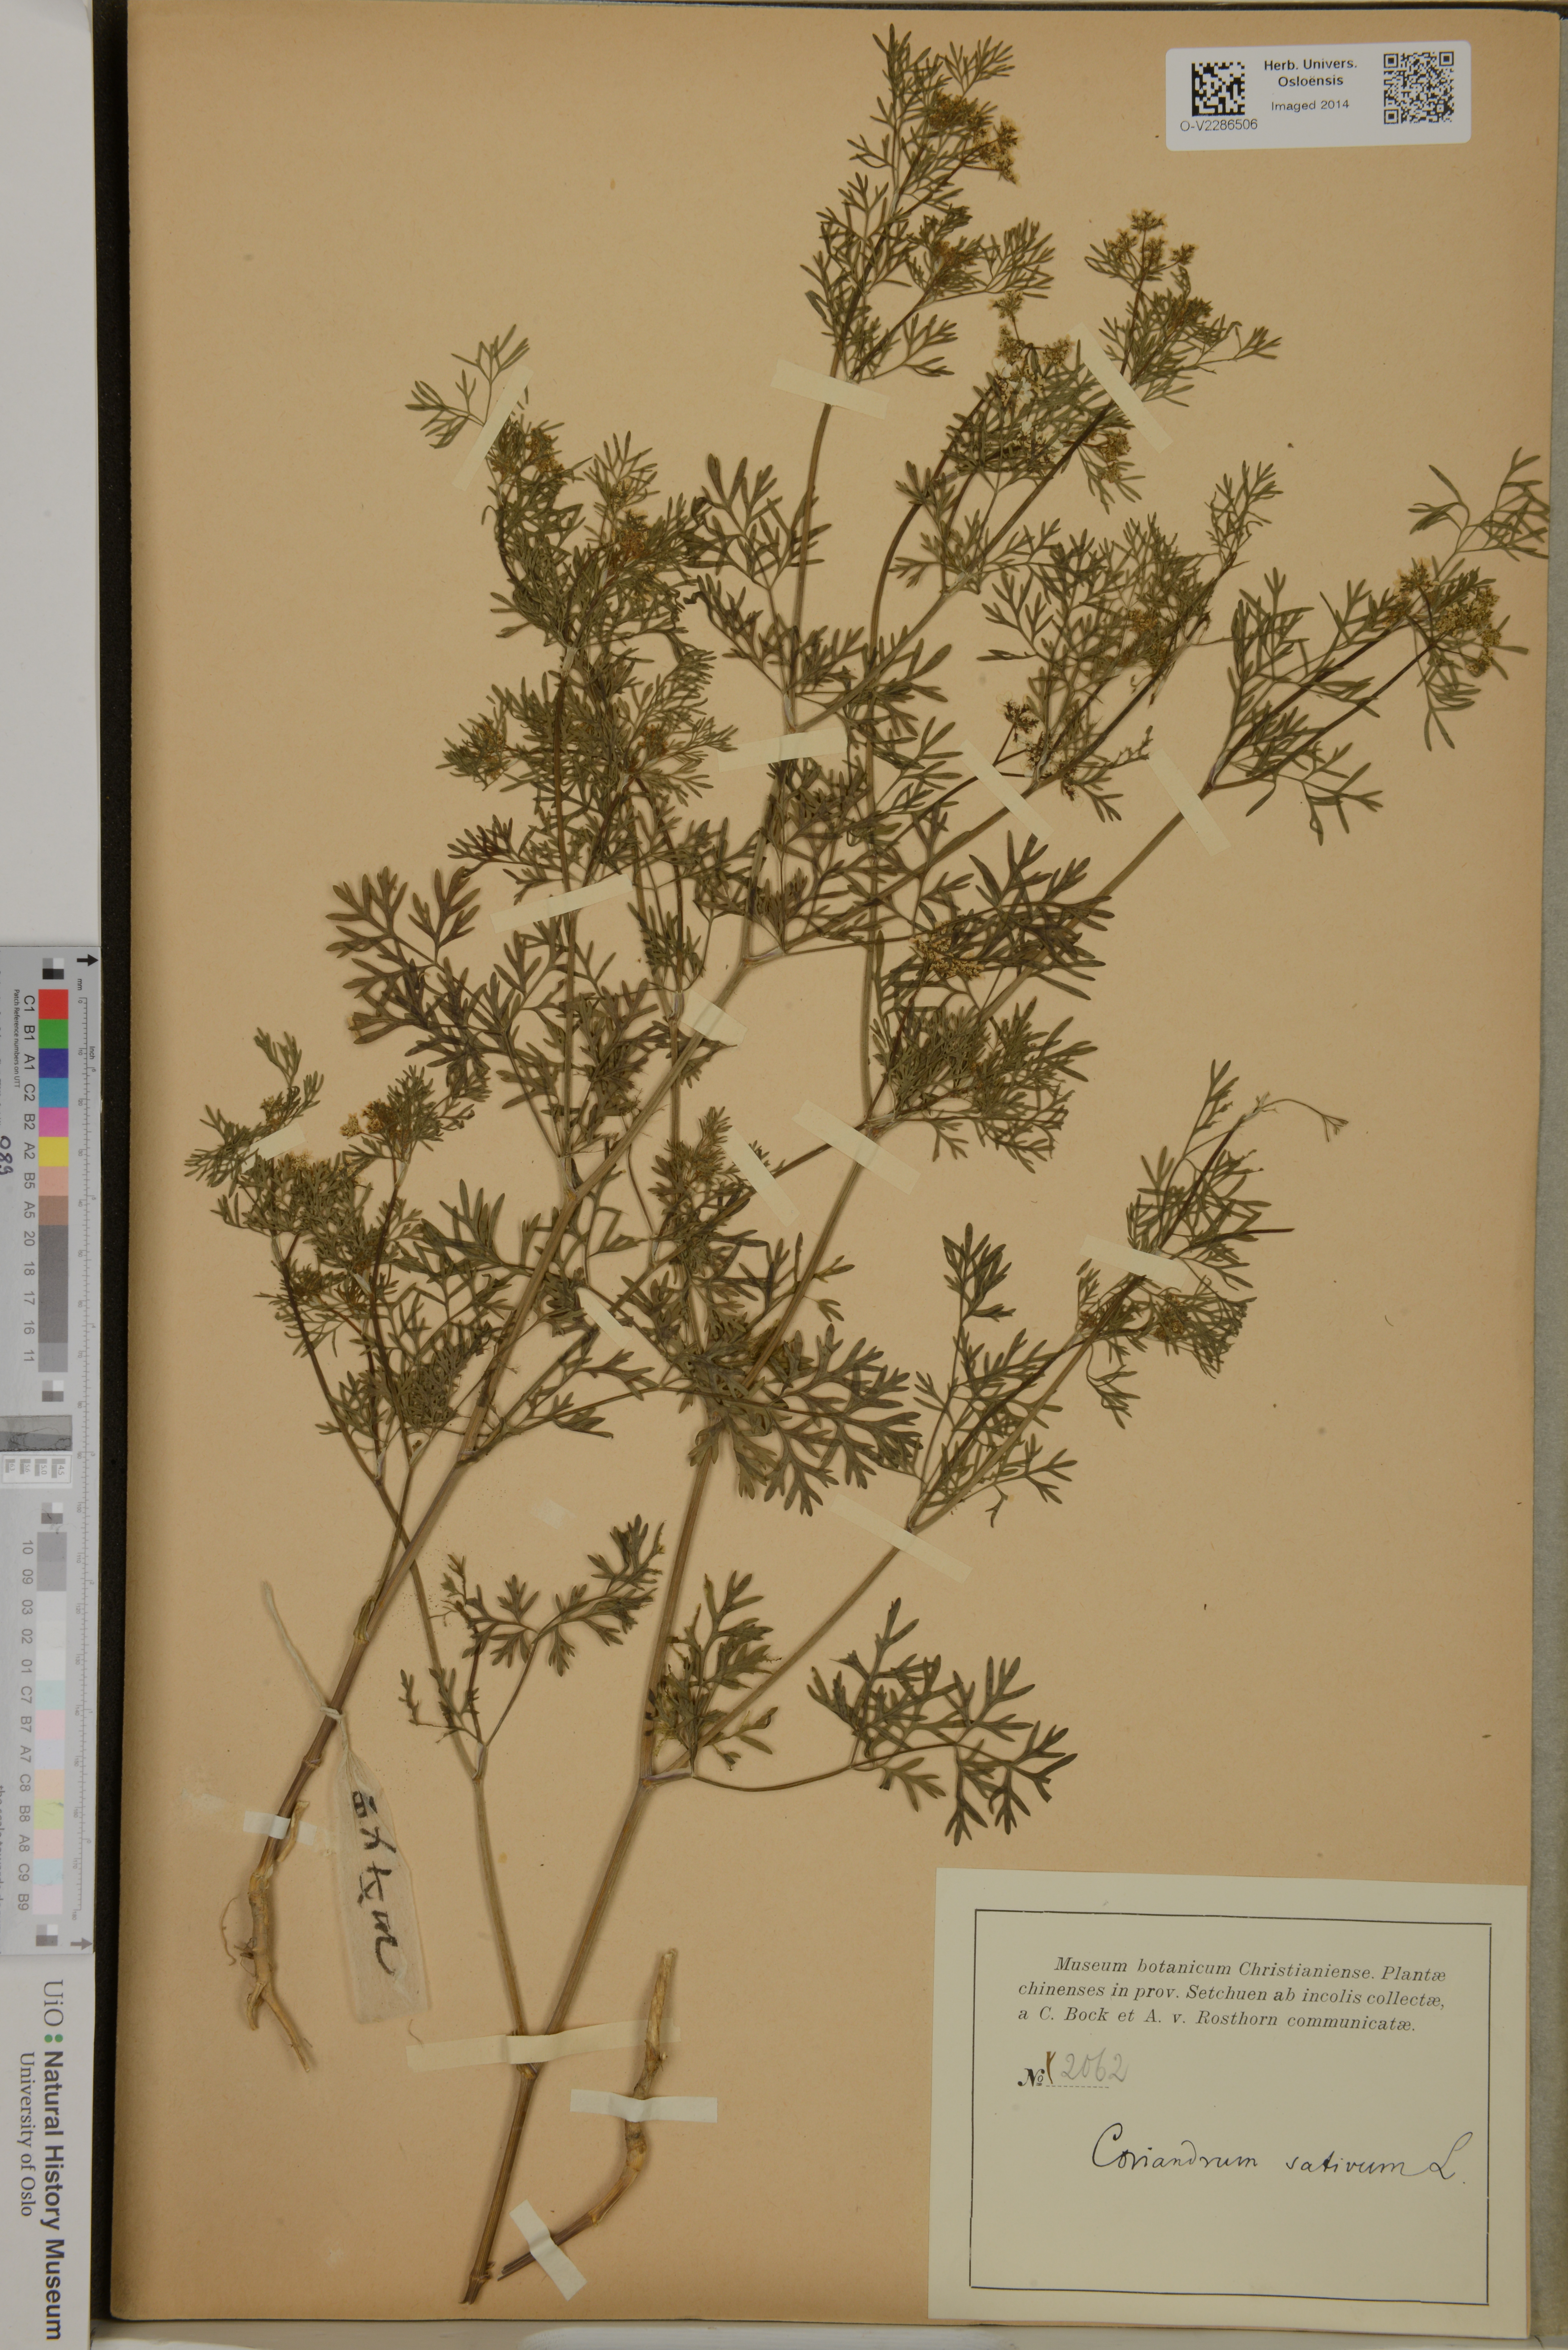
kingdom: Plantae
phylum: Tracheophyta
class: Magnoliopsida
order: Apiales
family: Apiaceae
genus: Coriandrum
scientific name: Coriandrum sativum
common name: Coriander
